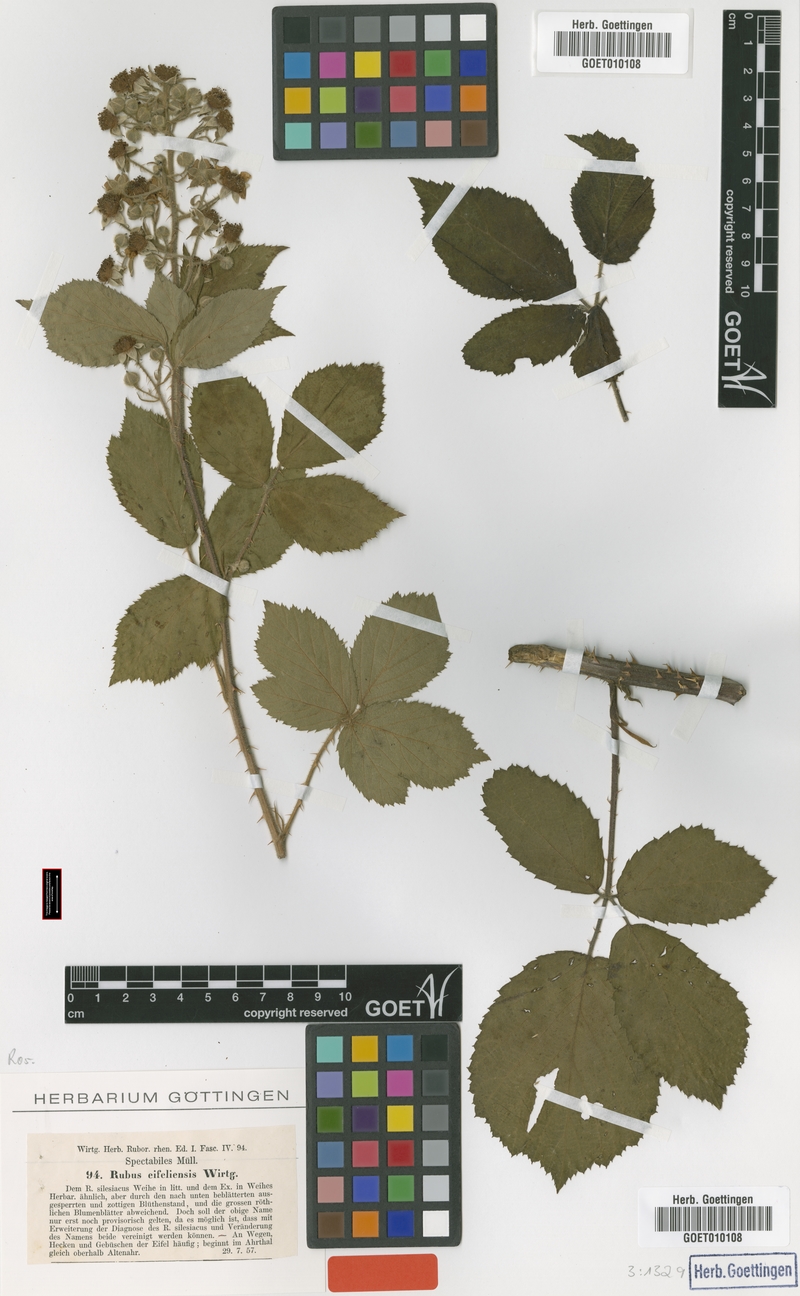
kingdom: Plantae
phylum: Tracheophyta
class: Magnoliopsida
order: Rosales
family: Rosaceae
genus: Rubus
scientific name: Rubus eifeliensis
